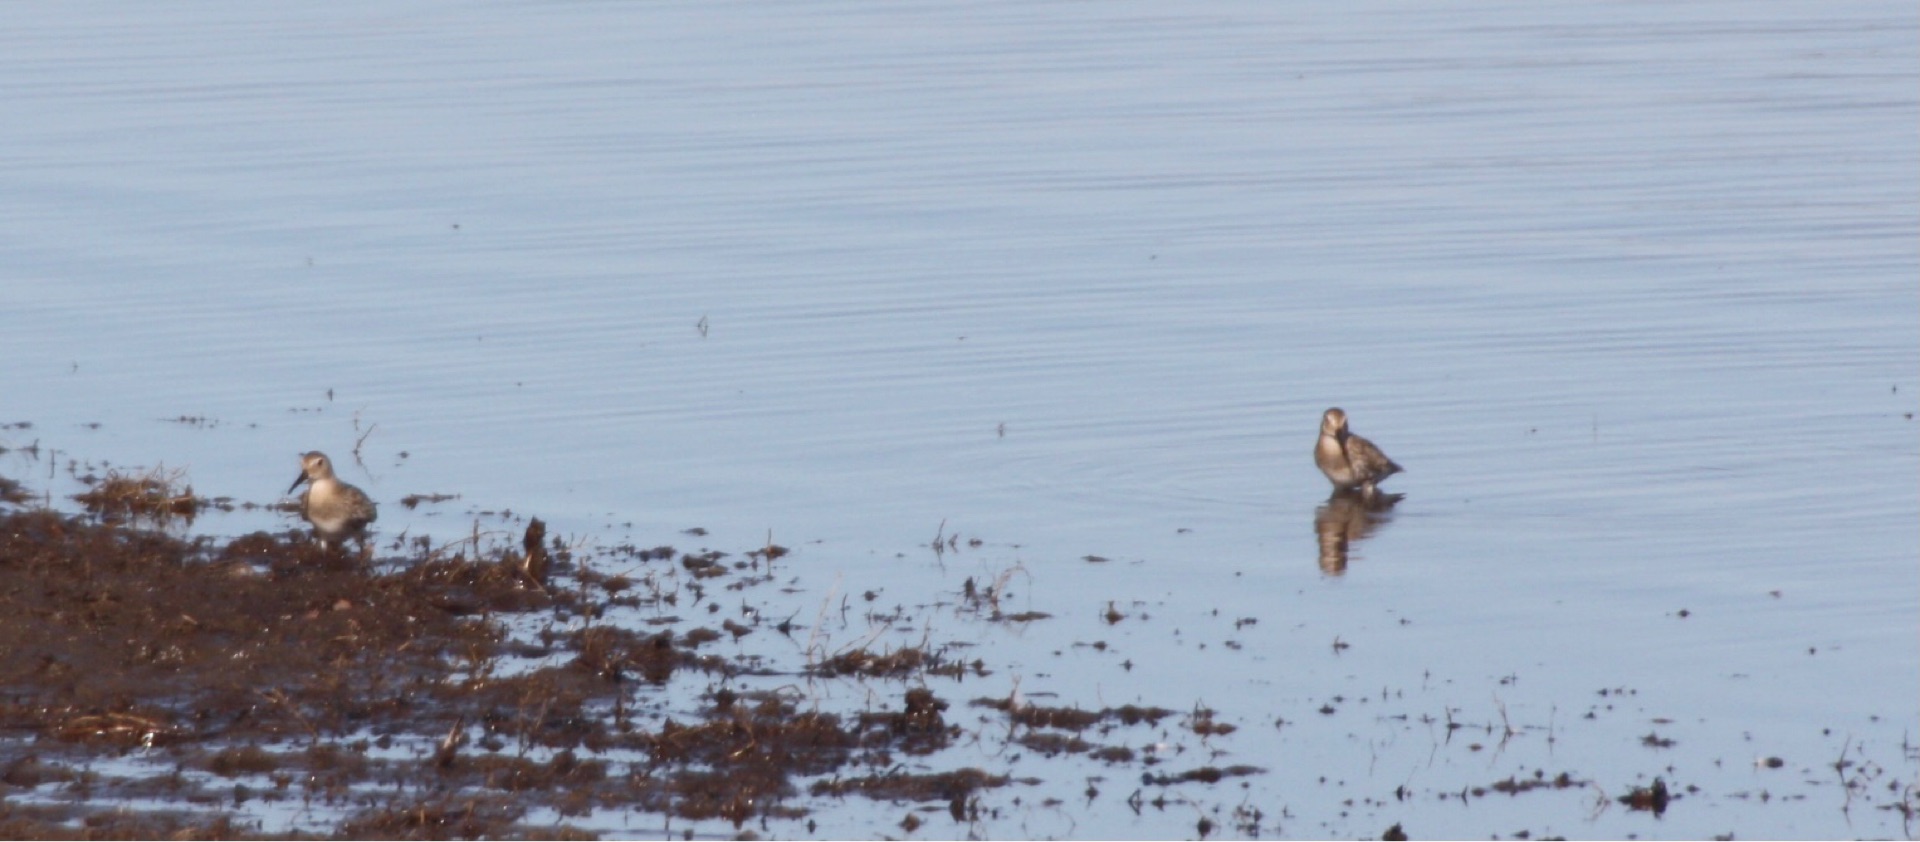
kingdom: Animalia
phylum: Chordata
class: Aves
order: Charadriiformes
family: Scolopacidae
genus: Calidris
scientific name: Calidris alpina
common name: Almindelig ryle
